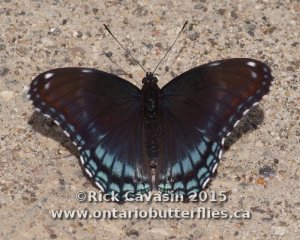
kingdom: Animalia
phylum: Arthropoda
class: Insecta
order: Lepidoptera
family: Nymphalidae
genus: Limenitis
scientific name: Limenitis astyanax
